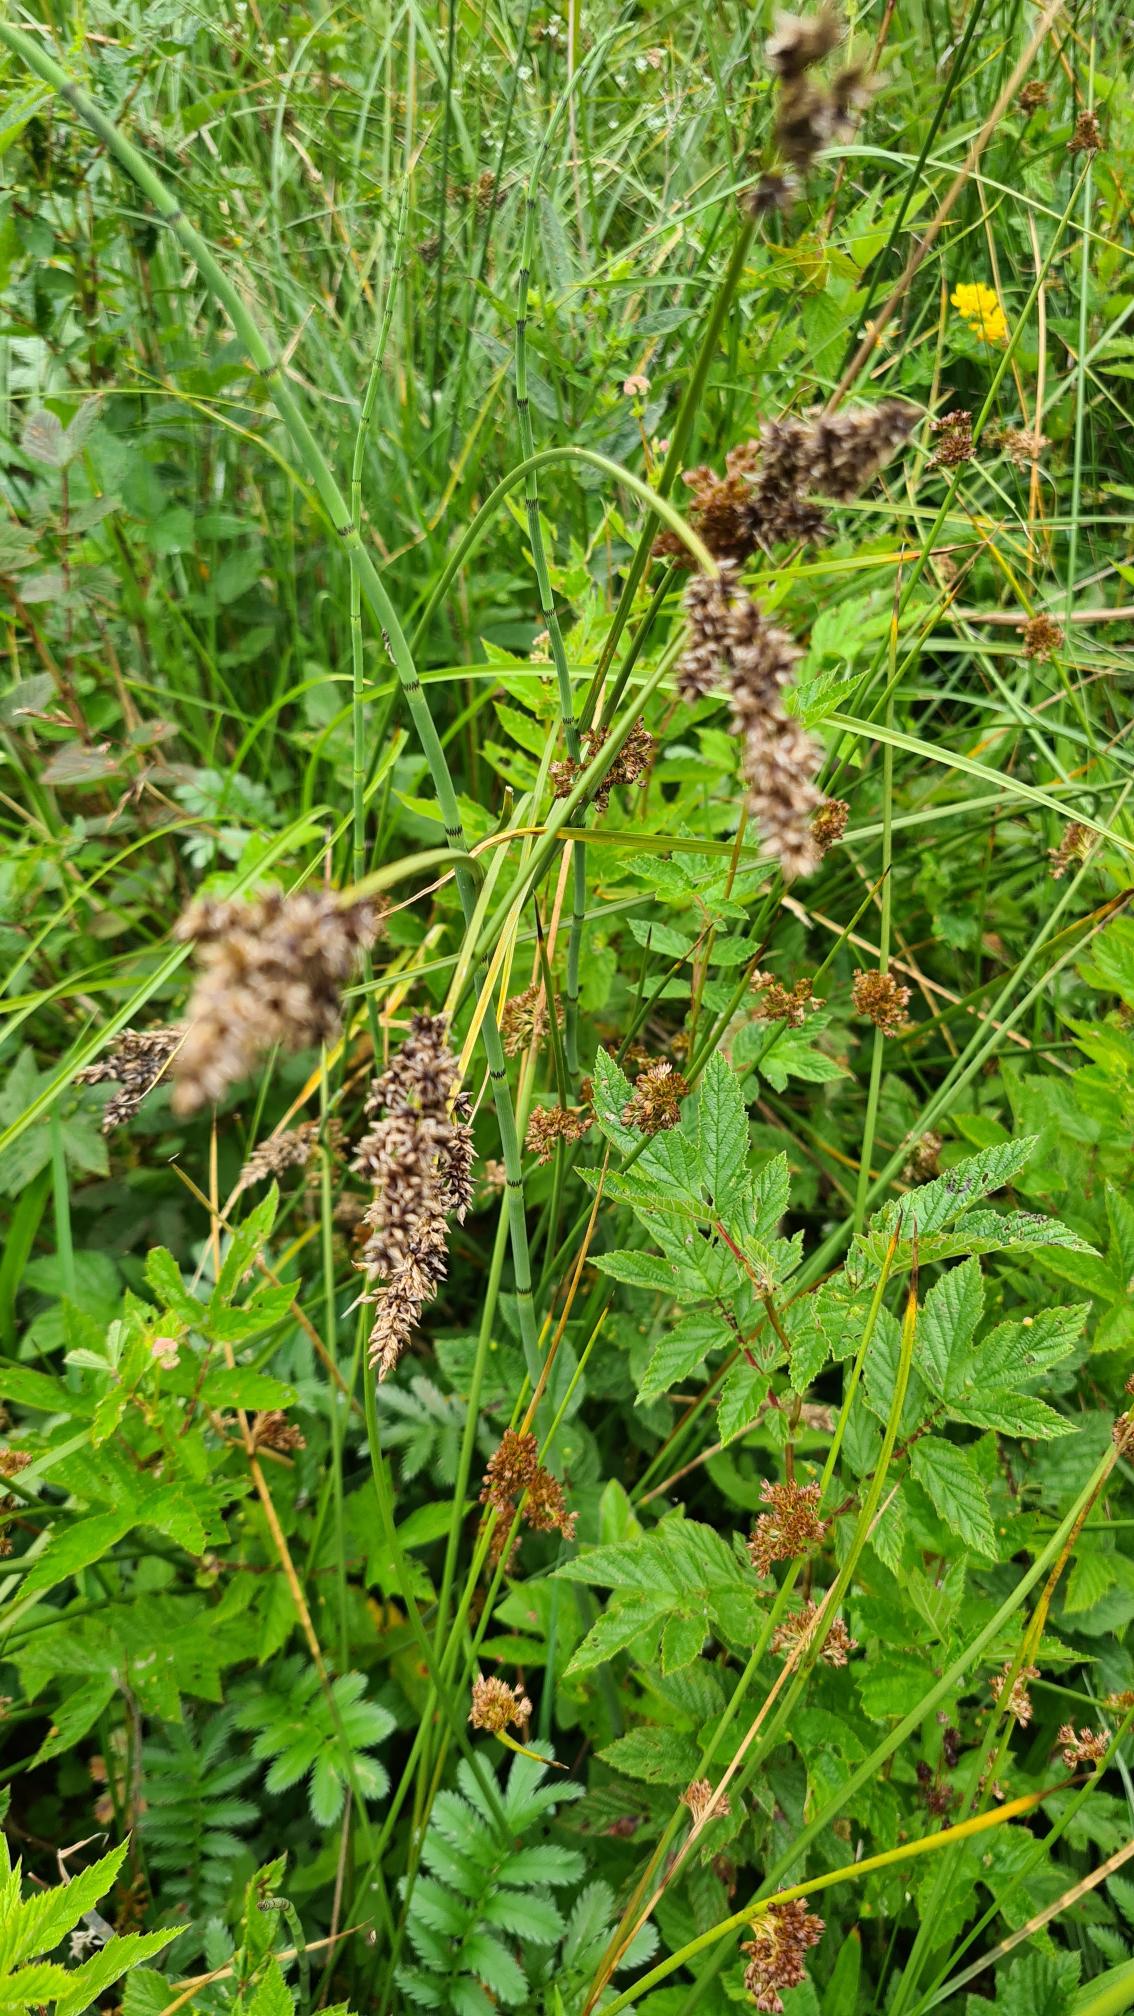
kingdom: Plantae
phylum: Tracheophyta
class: Liliopsida
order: Poales
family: Cyperaceae
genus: Carex
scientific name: Carex paniculata
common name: Top-star
